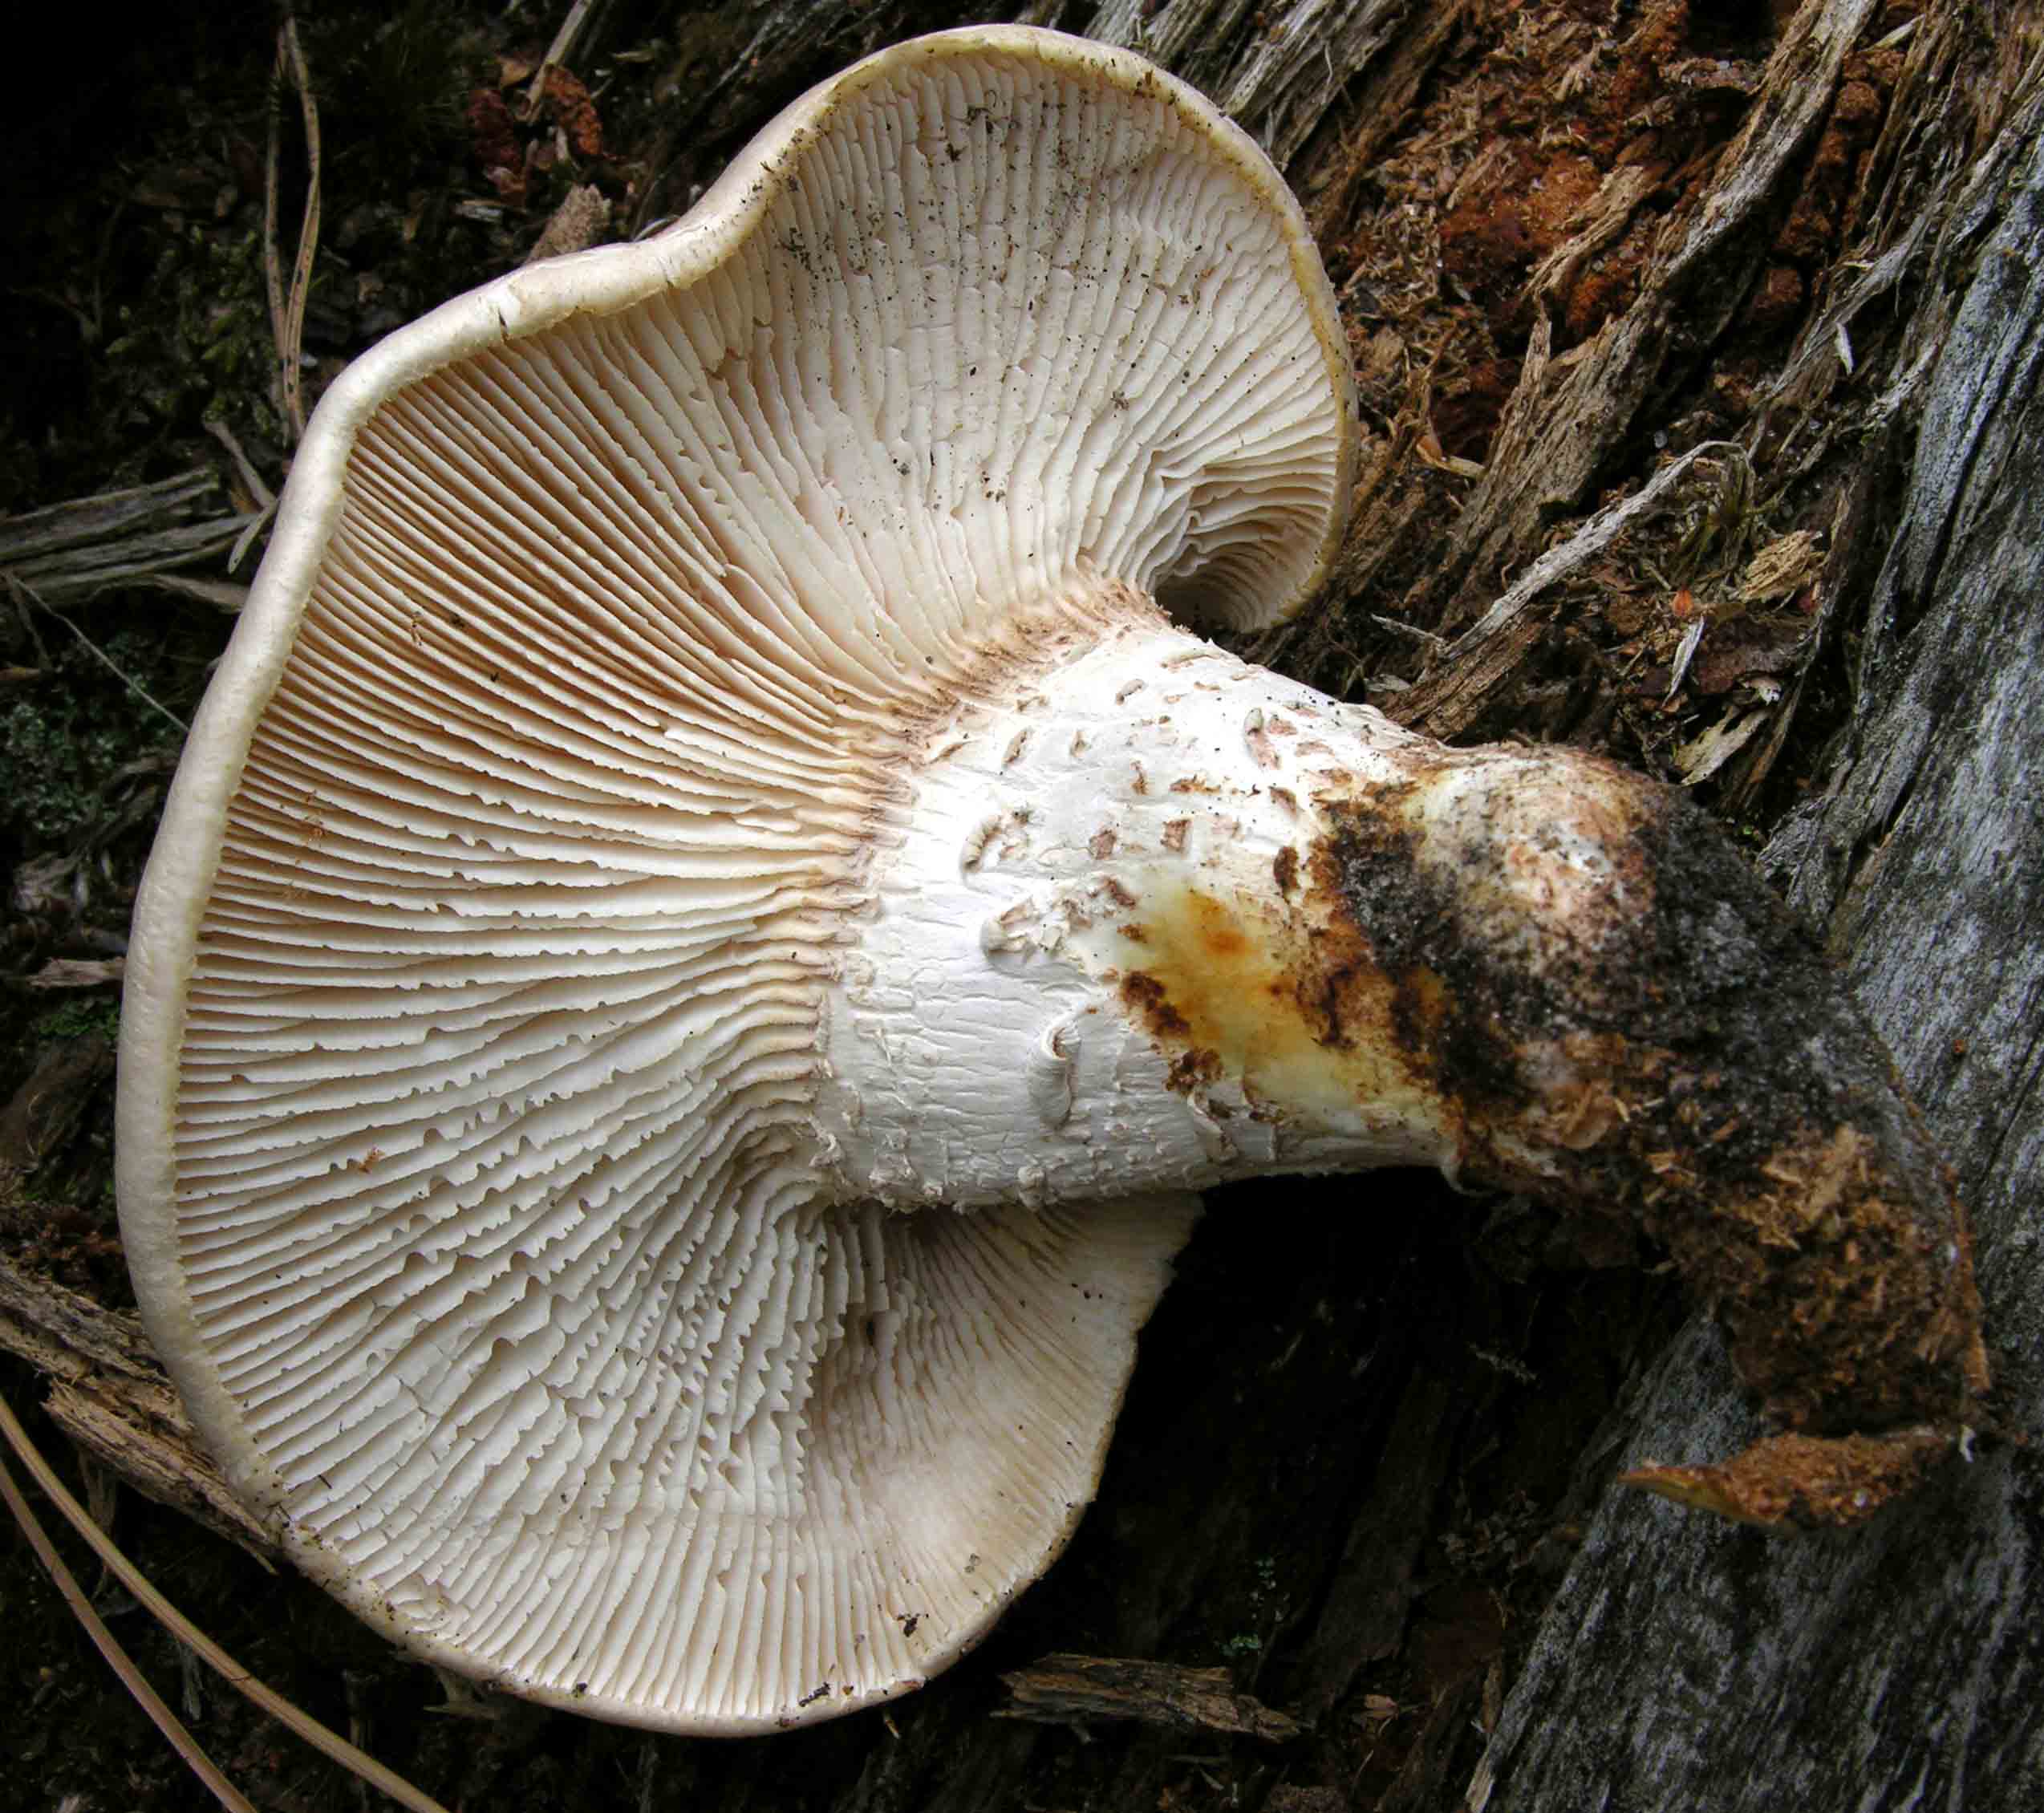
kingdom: Fungi
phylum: Basidiomycota
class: Agaricomycetes
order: Gloeophyllales
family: Gloeophyllaceae
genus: Neolentinus
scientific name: Neolentinus lepideus
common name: skællet sejhat
